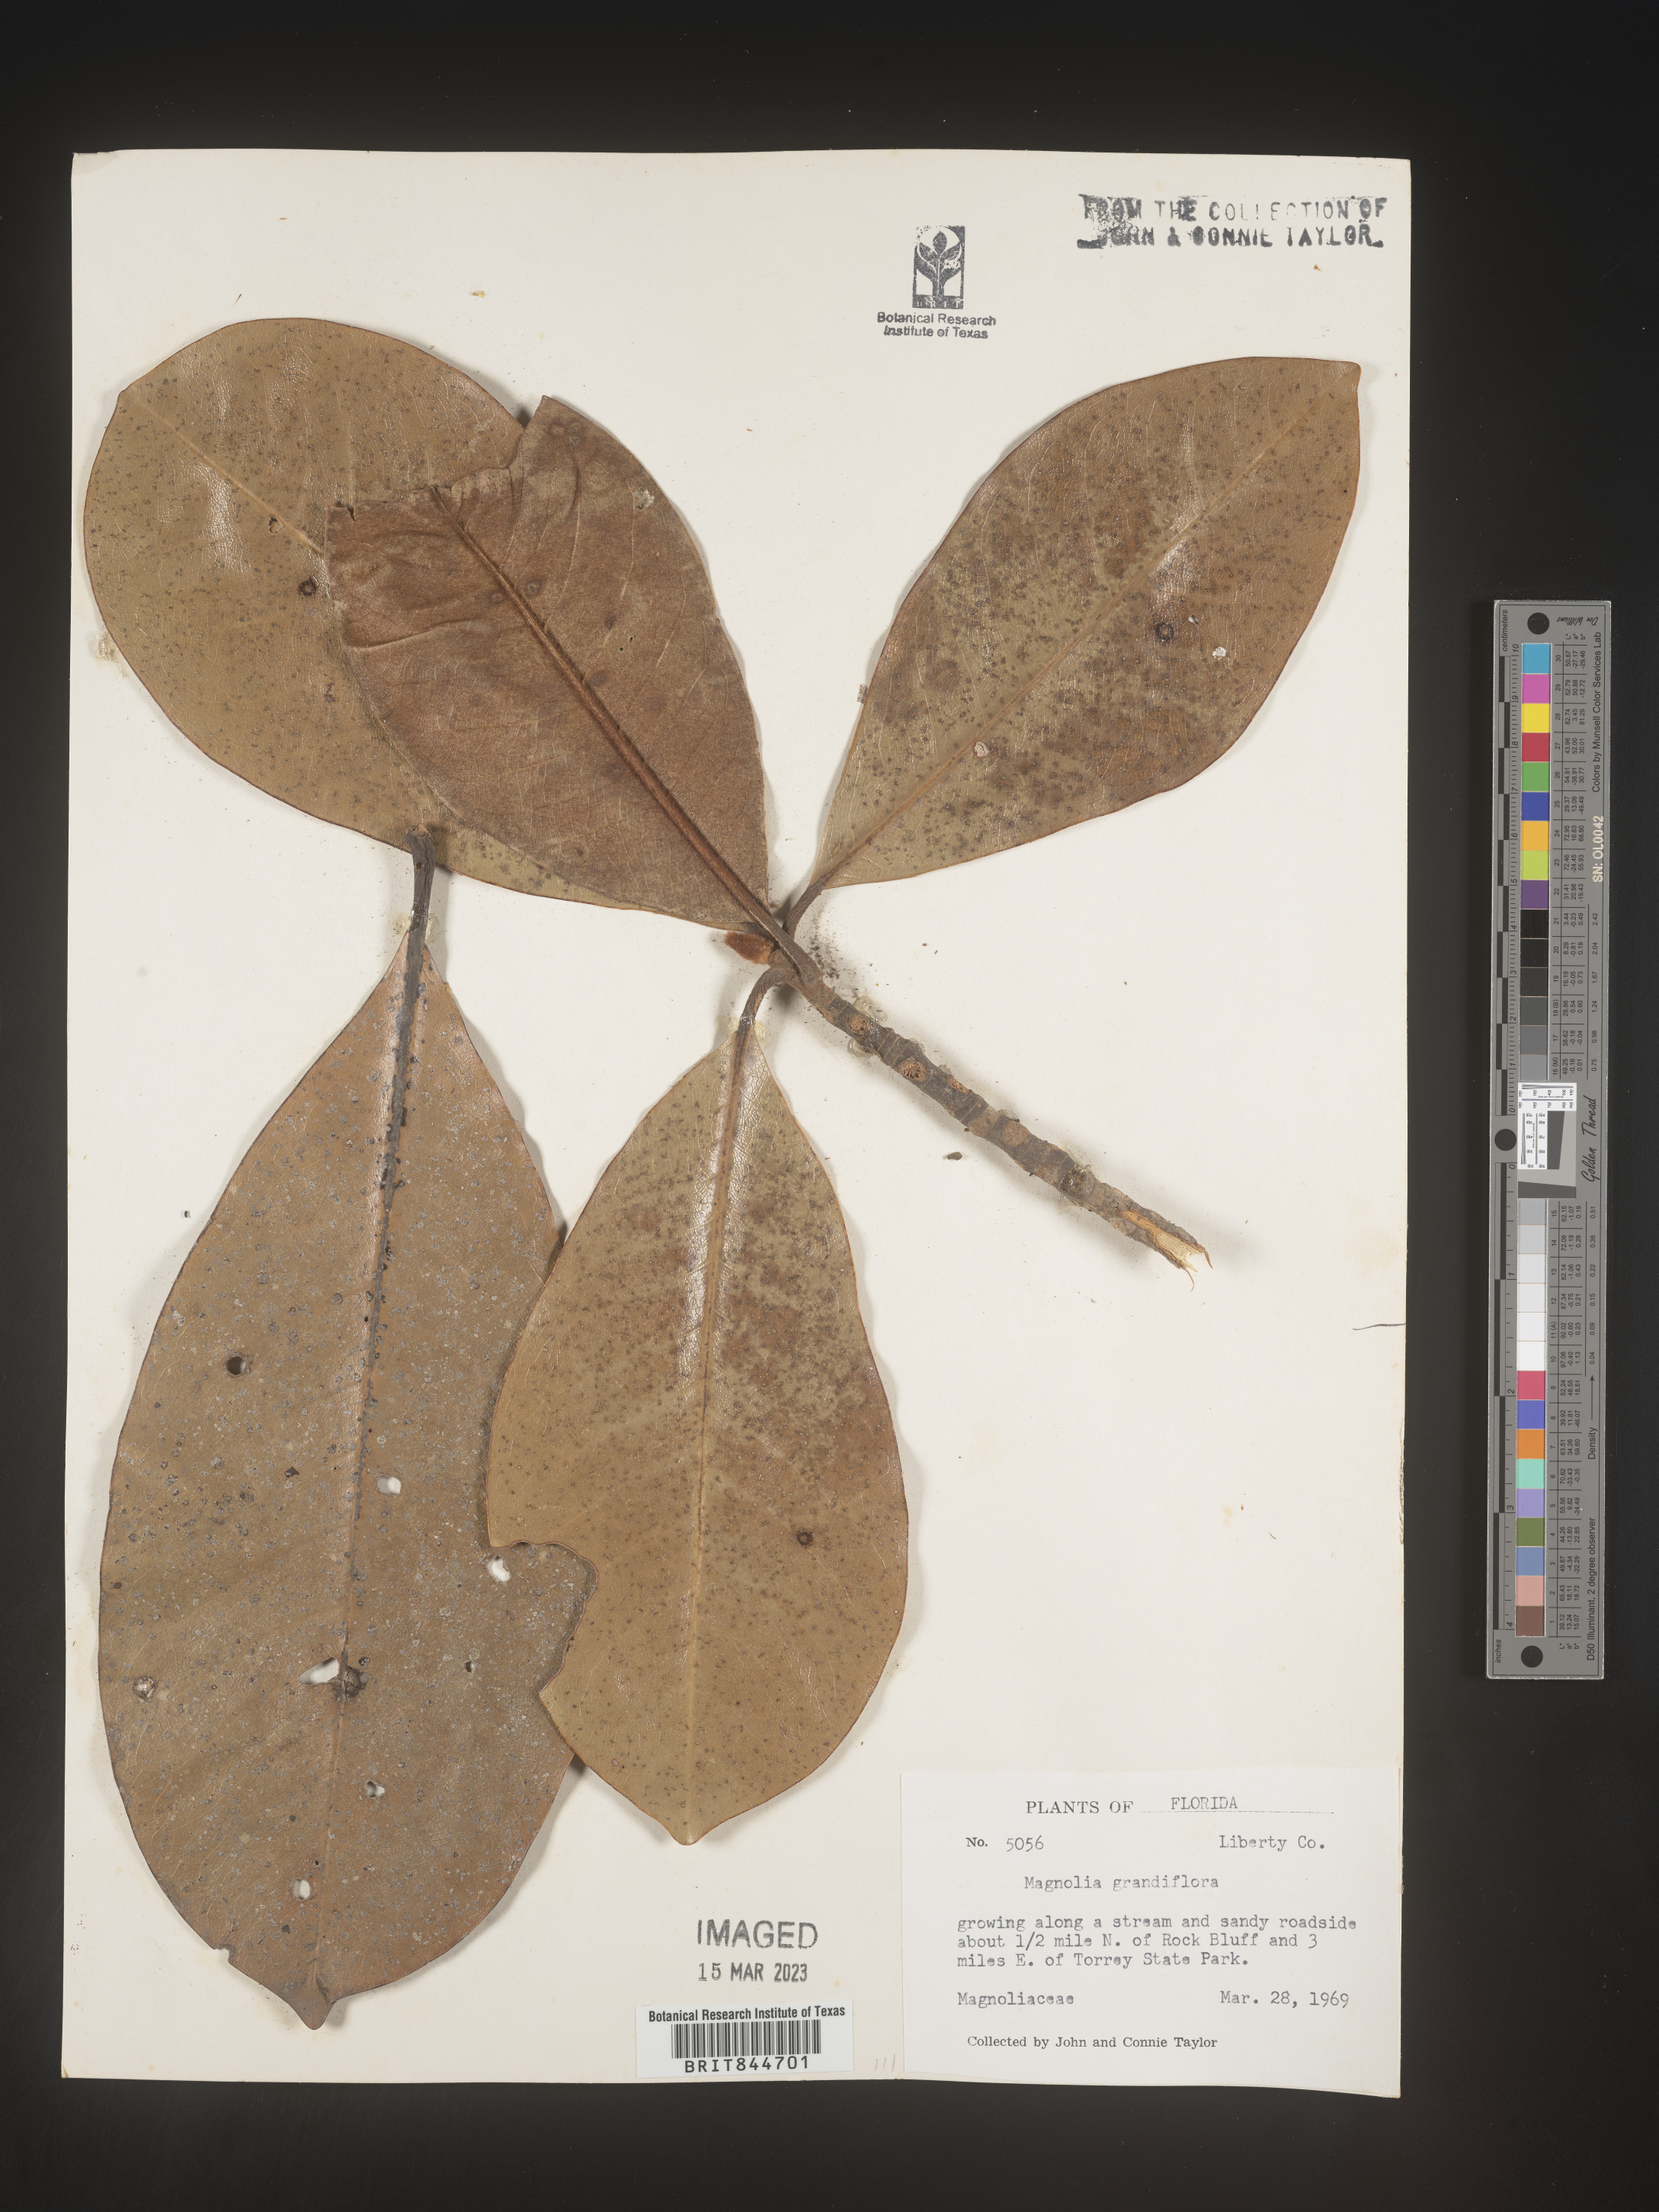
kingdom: Plantae
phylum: Tracheophyta
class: Magnoliopsida
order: Magnoliales
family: Magnoliaceae
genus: Magnolia
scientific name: Magnolia grandiflora
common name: Southern magnolia
